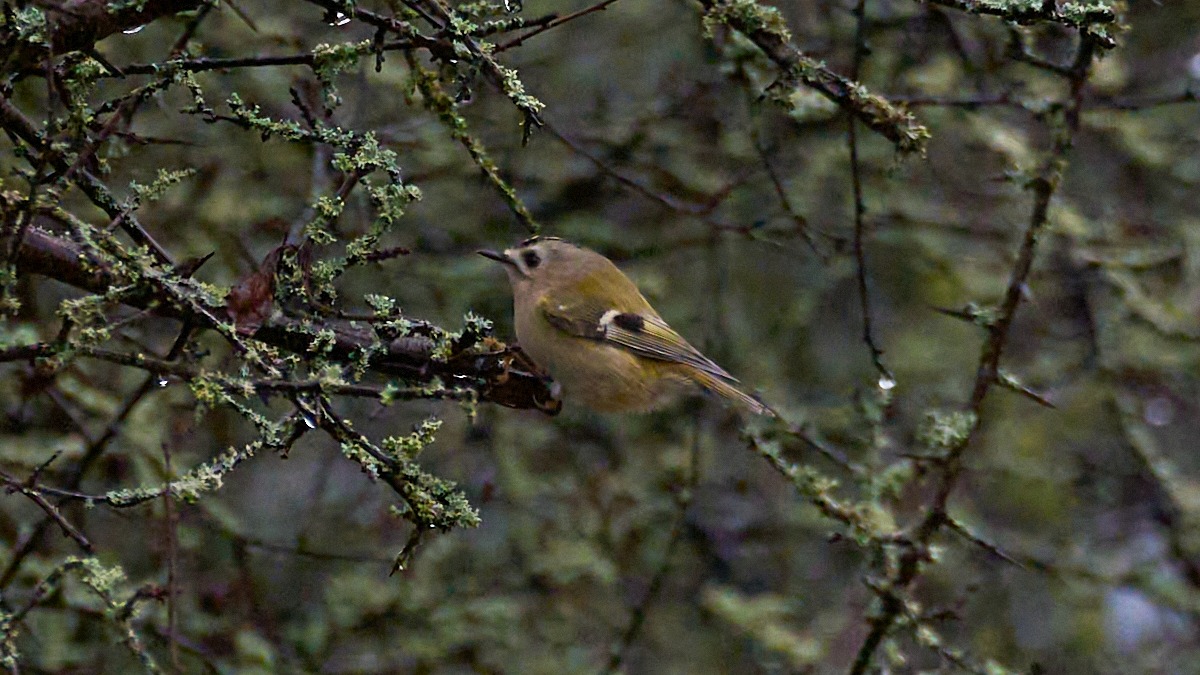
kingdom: Animalia
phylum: Chordata
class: Aves
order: Passeriformes
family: Regulidae
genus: Regulus
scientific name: Regulus regulus
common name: Fuglekonge
